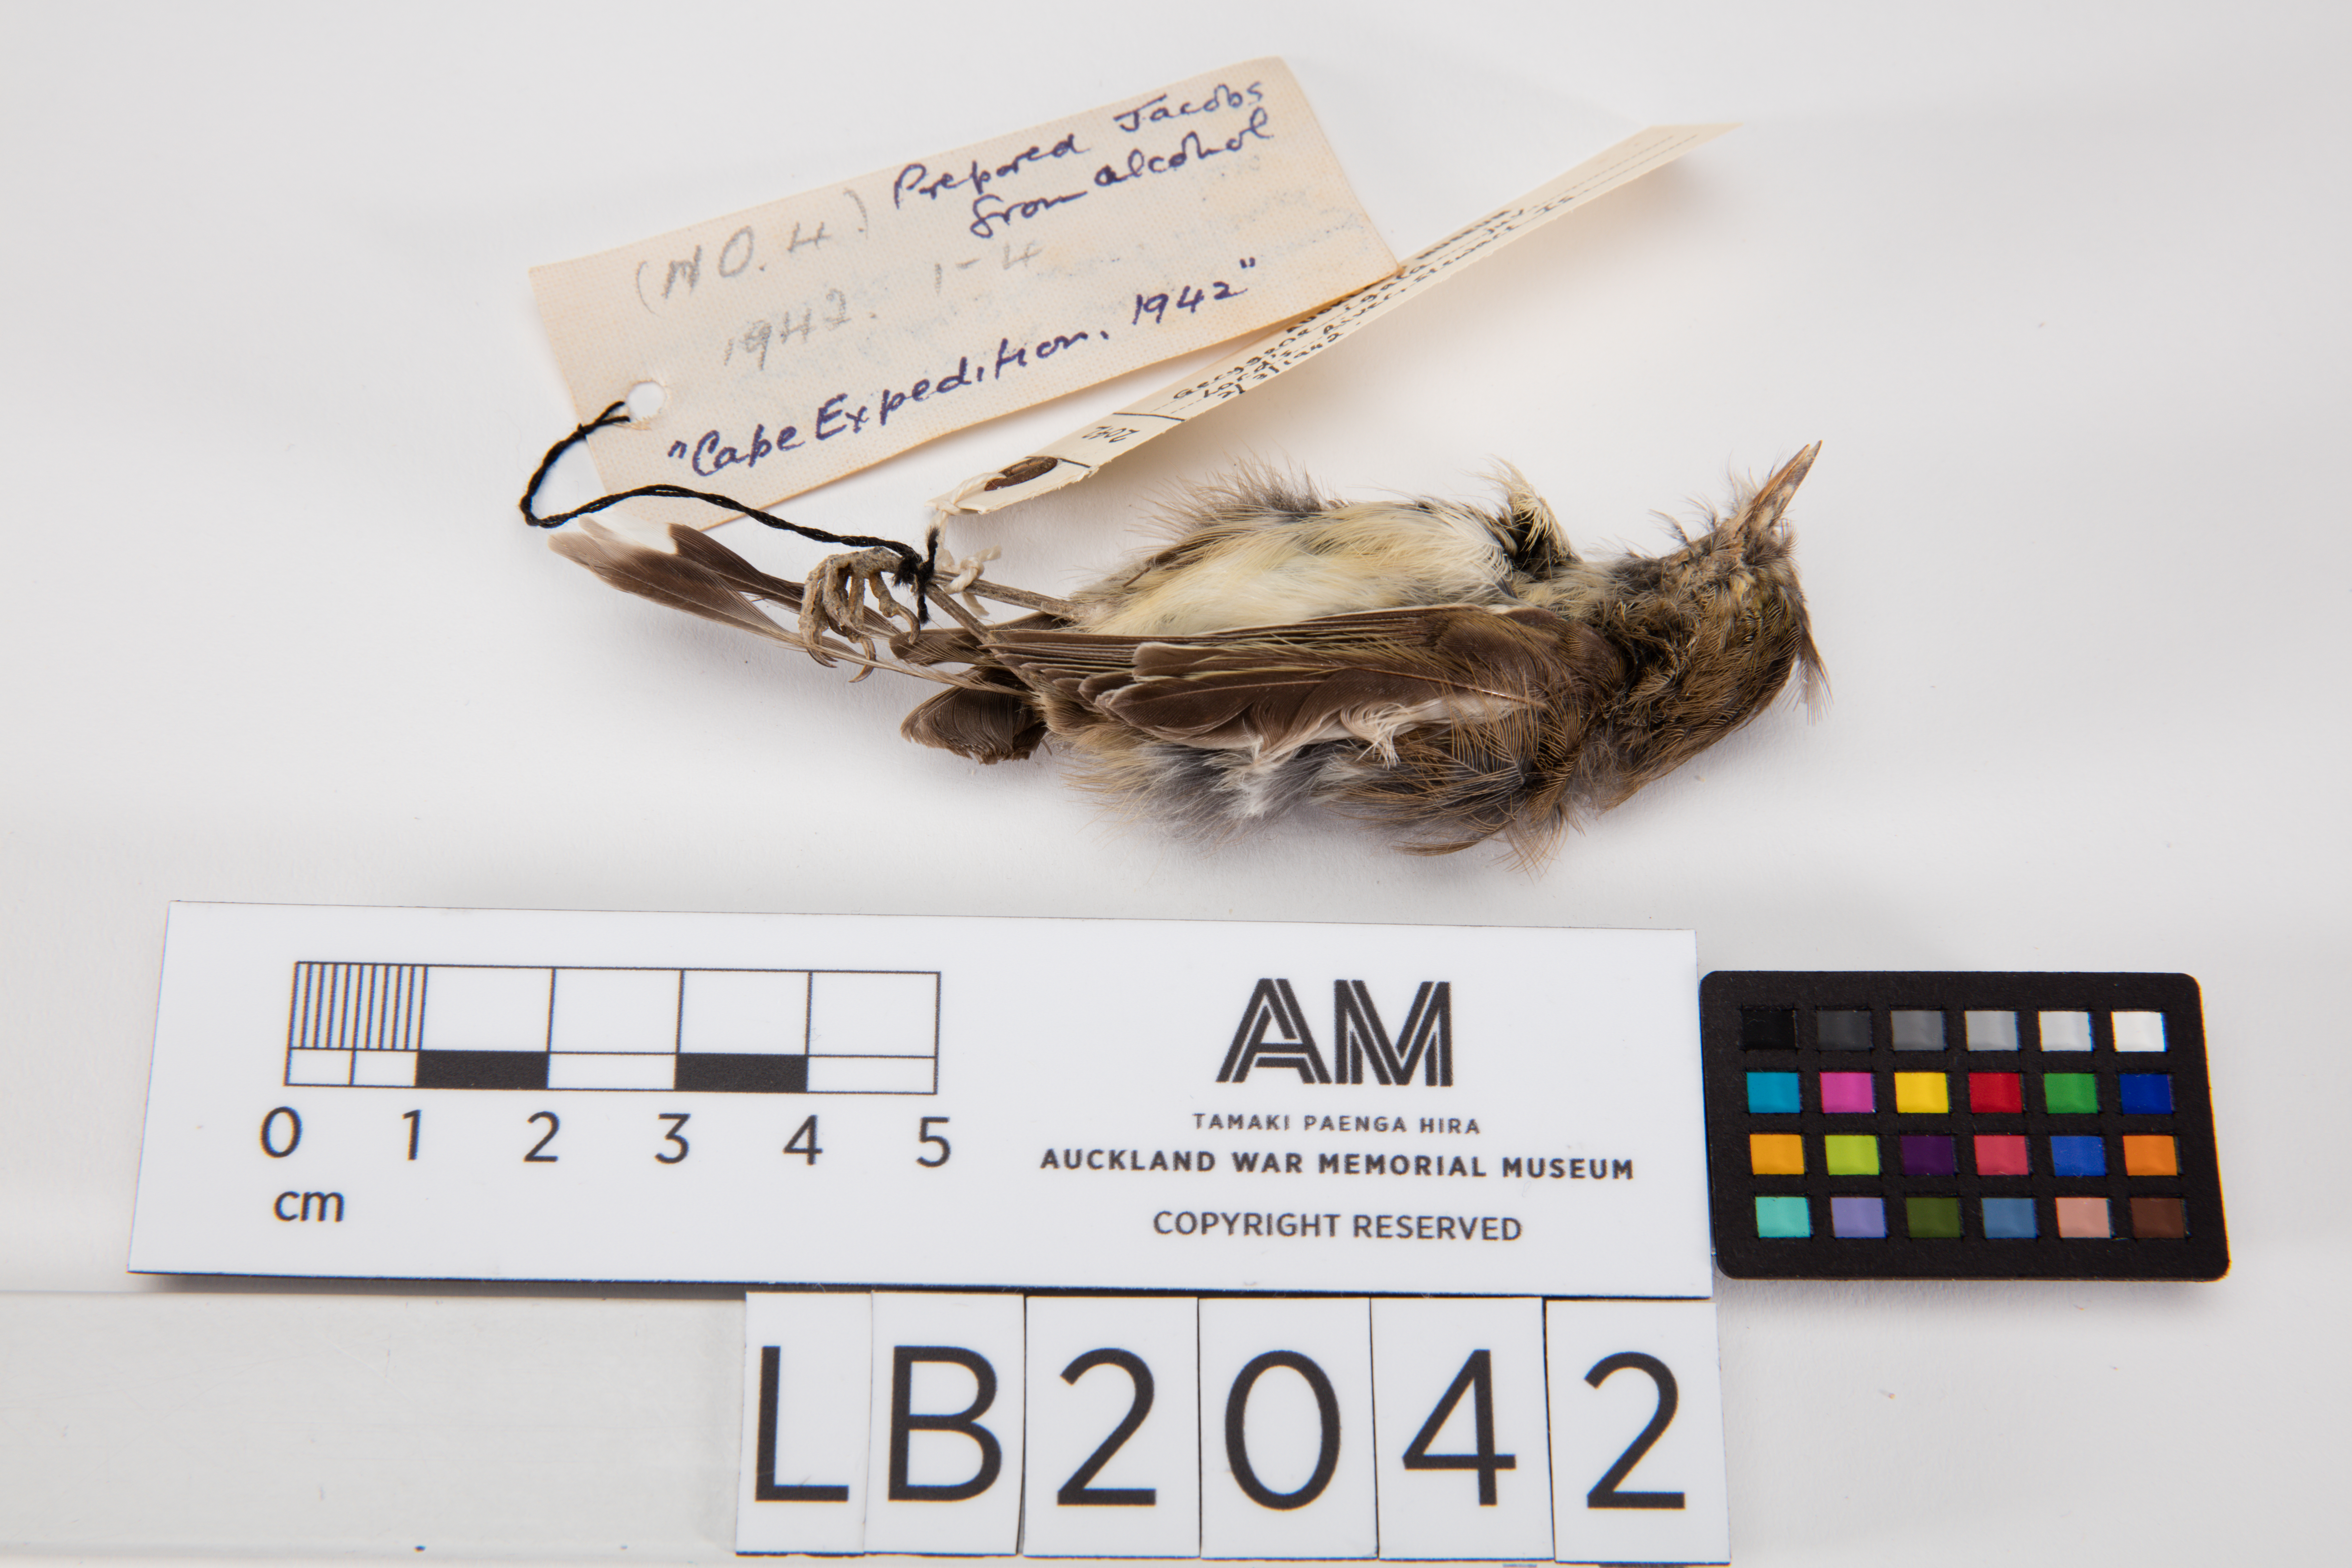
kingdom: Animalia
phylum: Chordata
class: Aves
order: Passeriformes
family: Acanthizidae
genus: Gerygone
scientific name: Gerygone igata
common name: Grey gerygone
